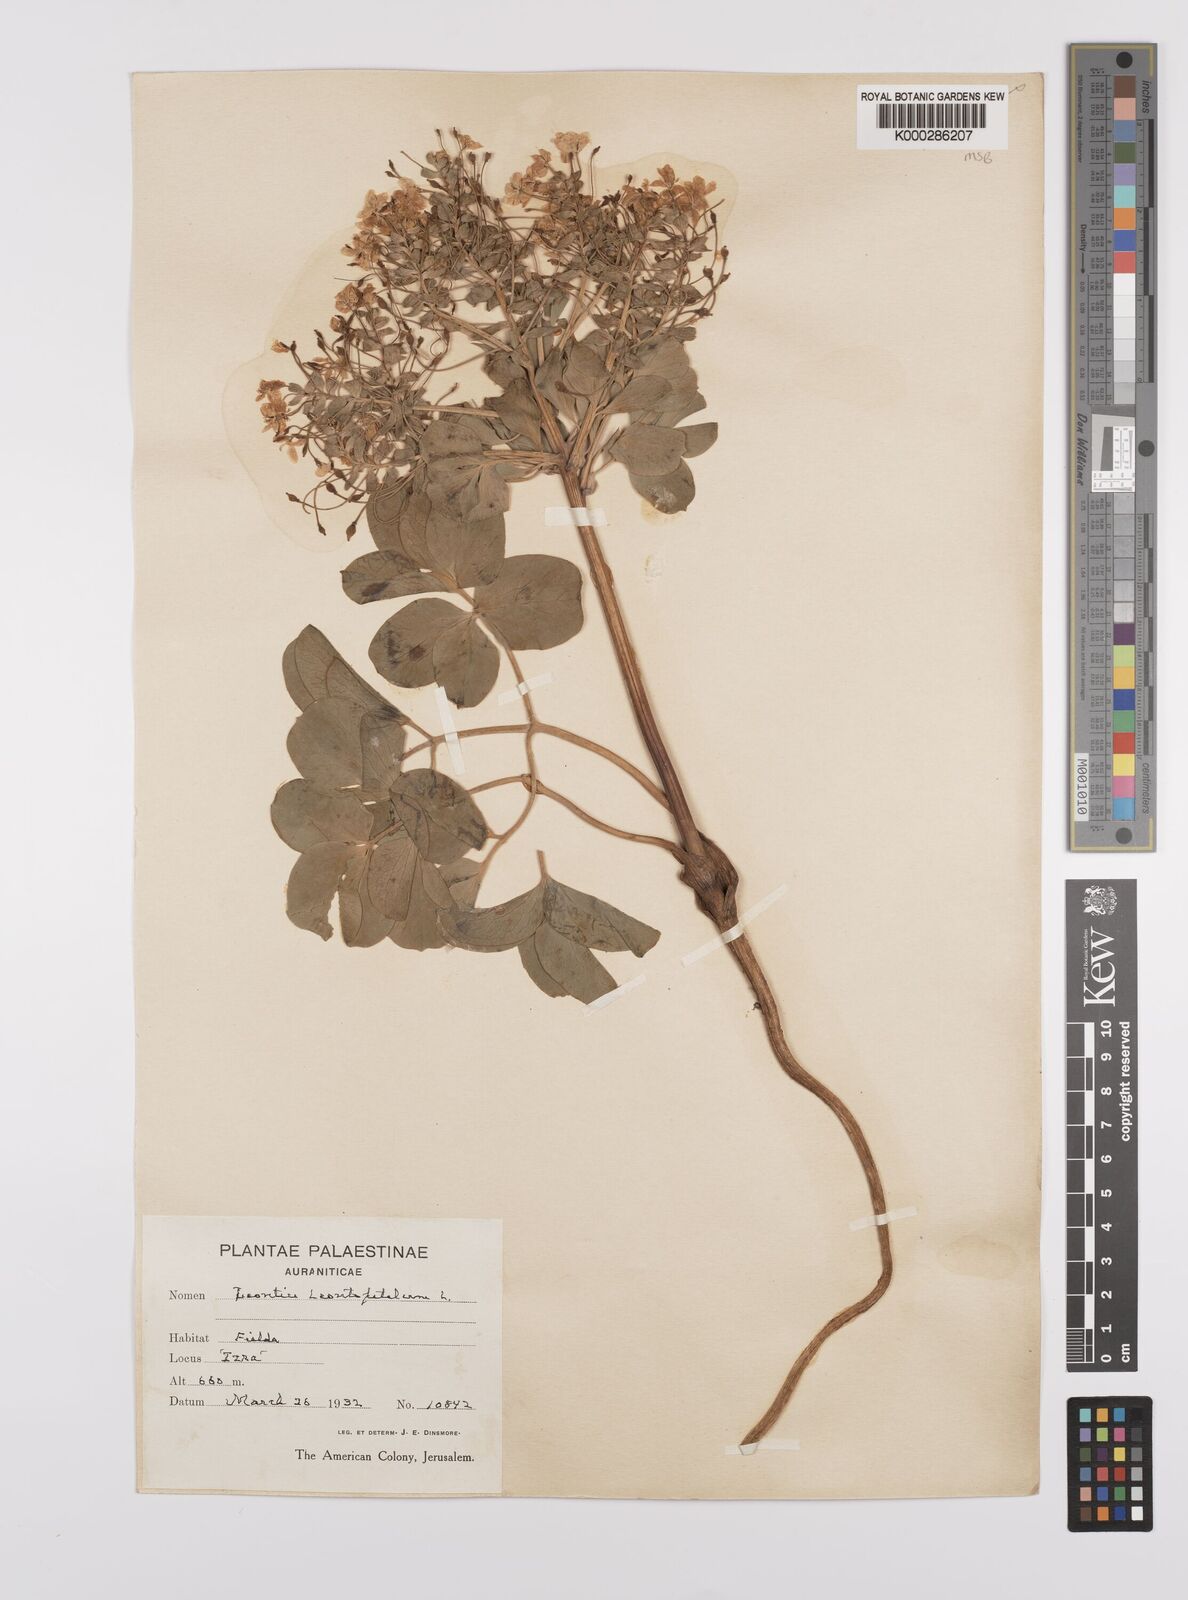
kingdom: Plantae
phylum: Tracheophyta
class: Magnoliopsida
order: Ranunculales
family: Berberidaceae
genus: Leontice
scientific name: Leontice leontopetalum
